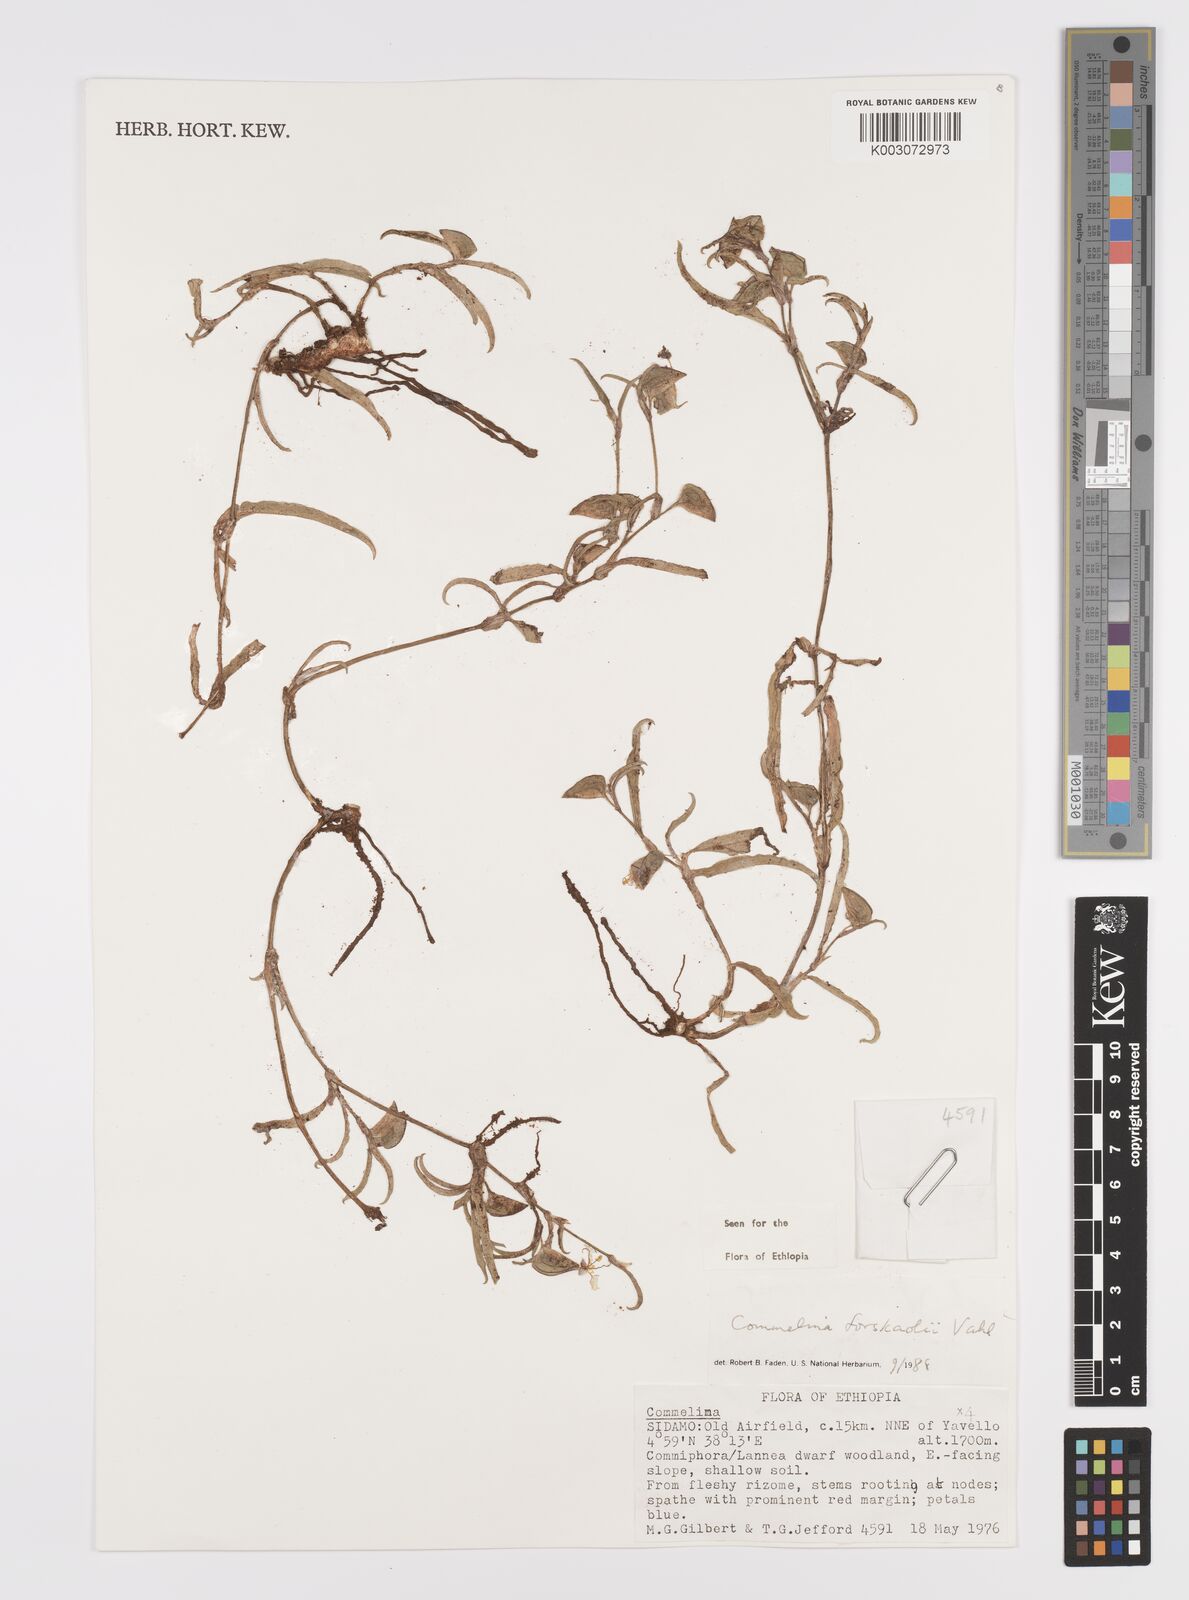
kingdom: Plantae
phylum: Tracheophyta
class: Liliopsida
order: Commelinales
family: Commelinaceae
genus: Commelina
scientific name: Commelina forskaolii
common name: Rat's ear
